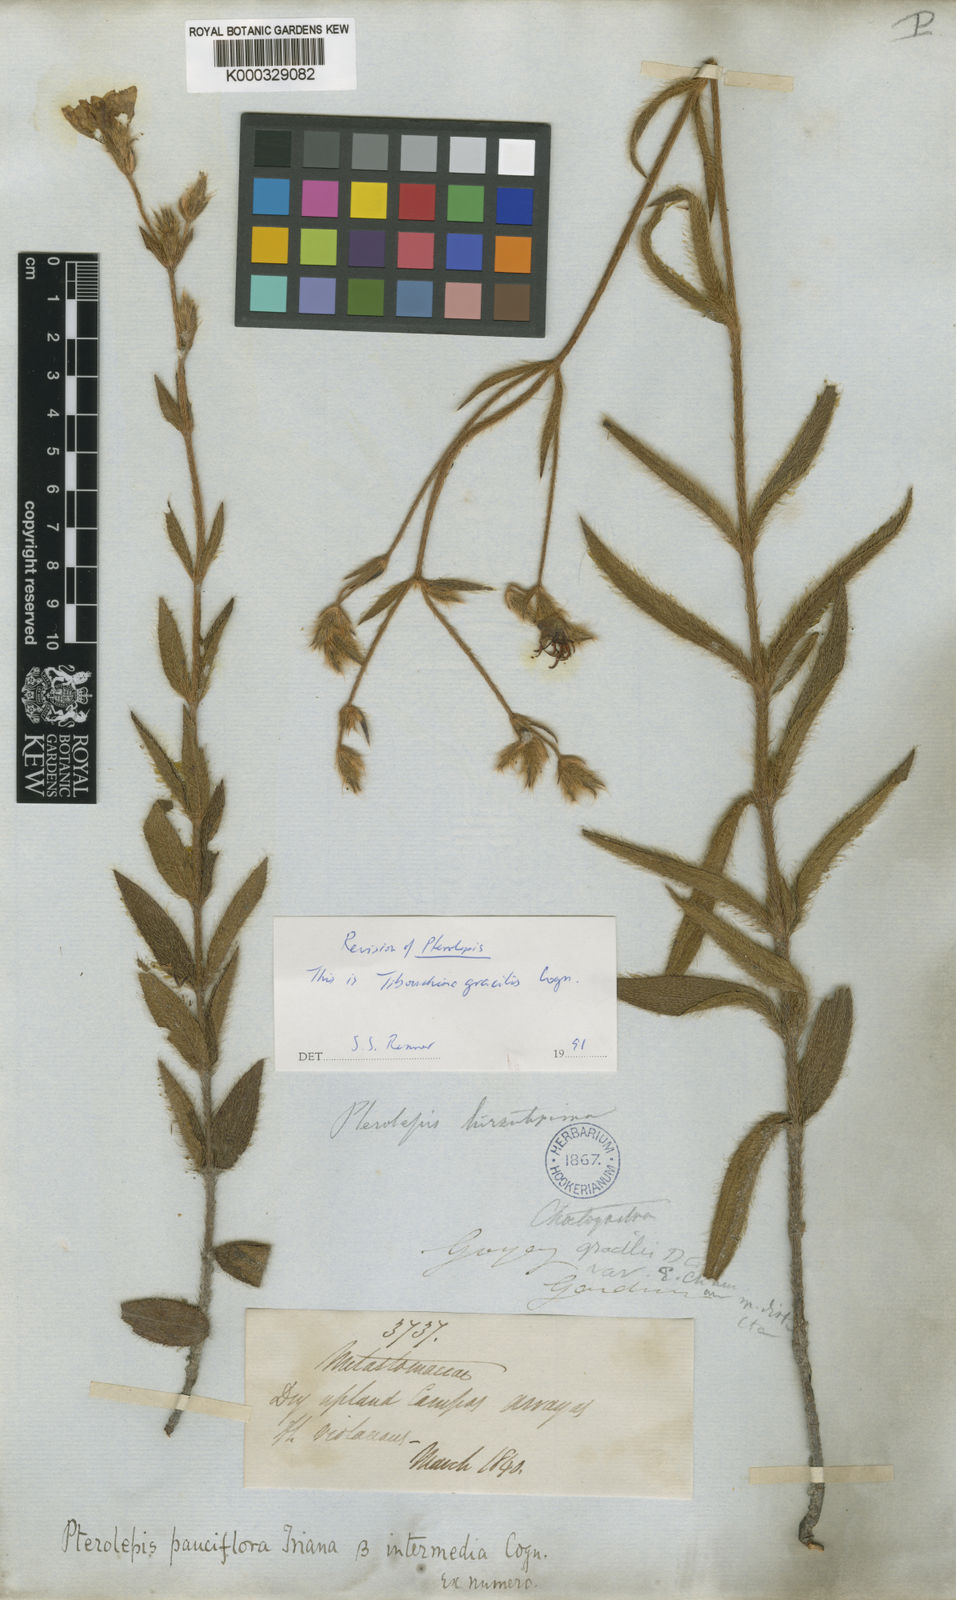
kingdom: Plantae
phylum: Tracheophyta
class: Magnoliopsida
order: Myrtales
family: Melastomataceae
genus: Chaetogastra
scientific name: Chaetogastra gracilis
